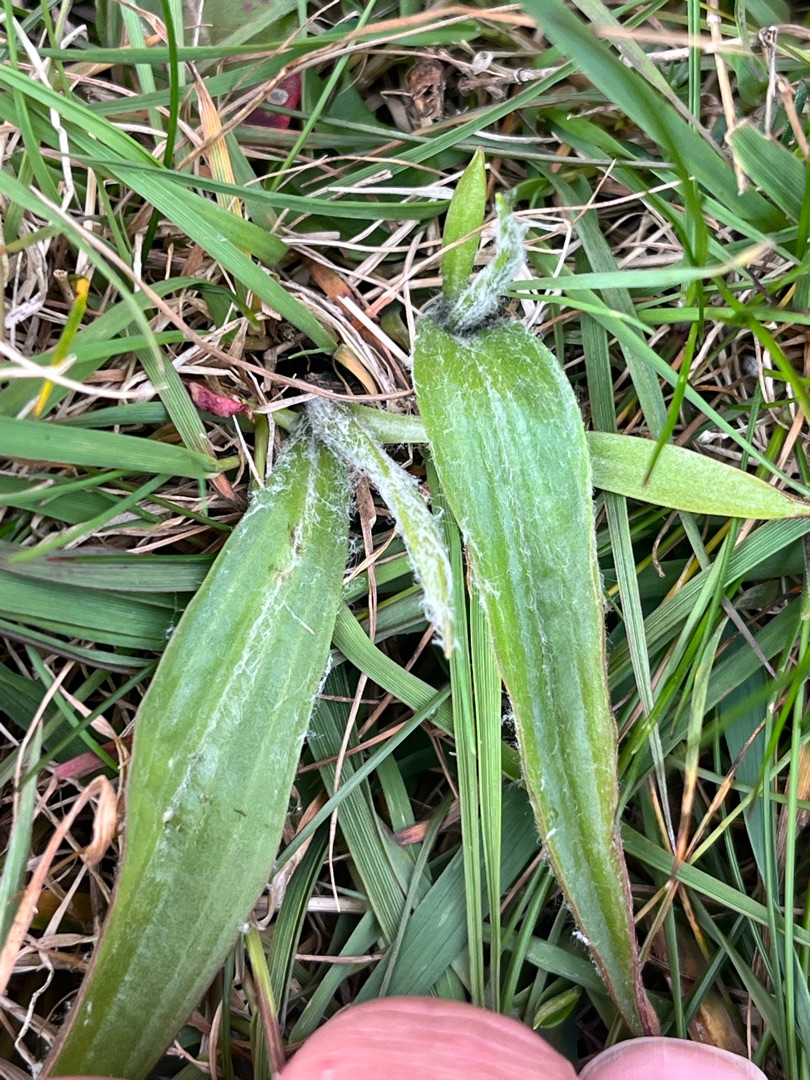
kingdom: Plantae
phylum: Tracheophyta
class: Magnoliopsida
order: Asterales
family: Asteraceae
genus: Scorzonera
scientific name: Scorzonera humilis
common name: Lav skorsoner
